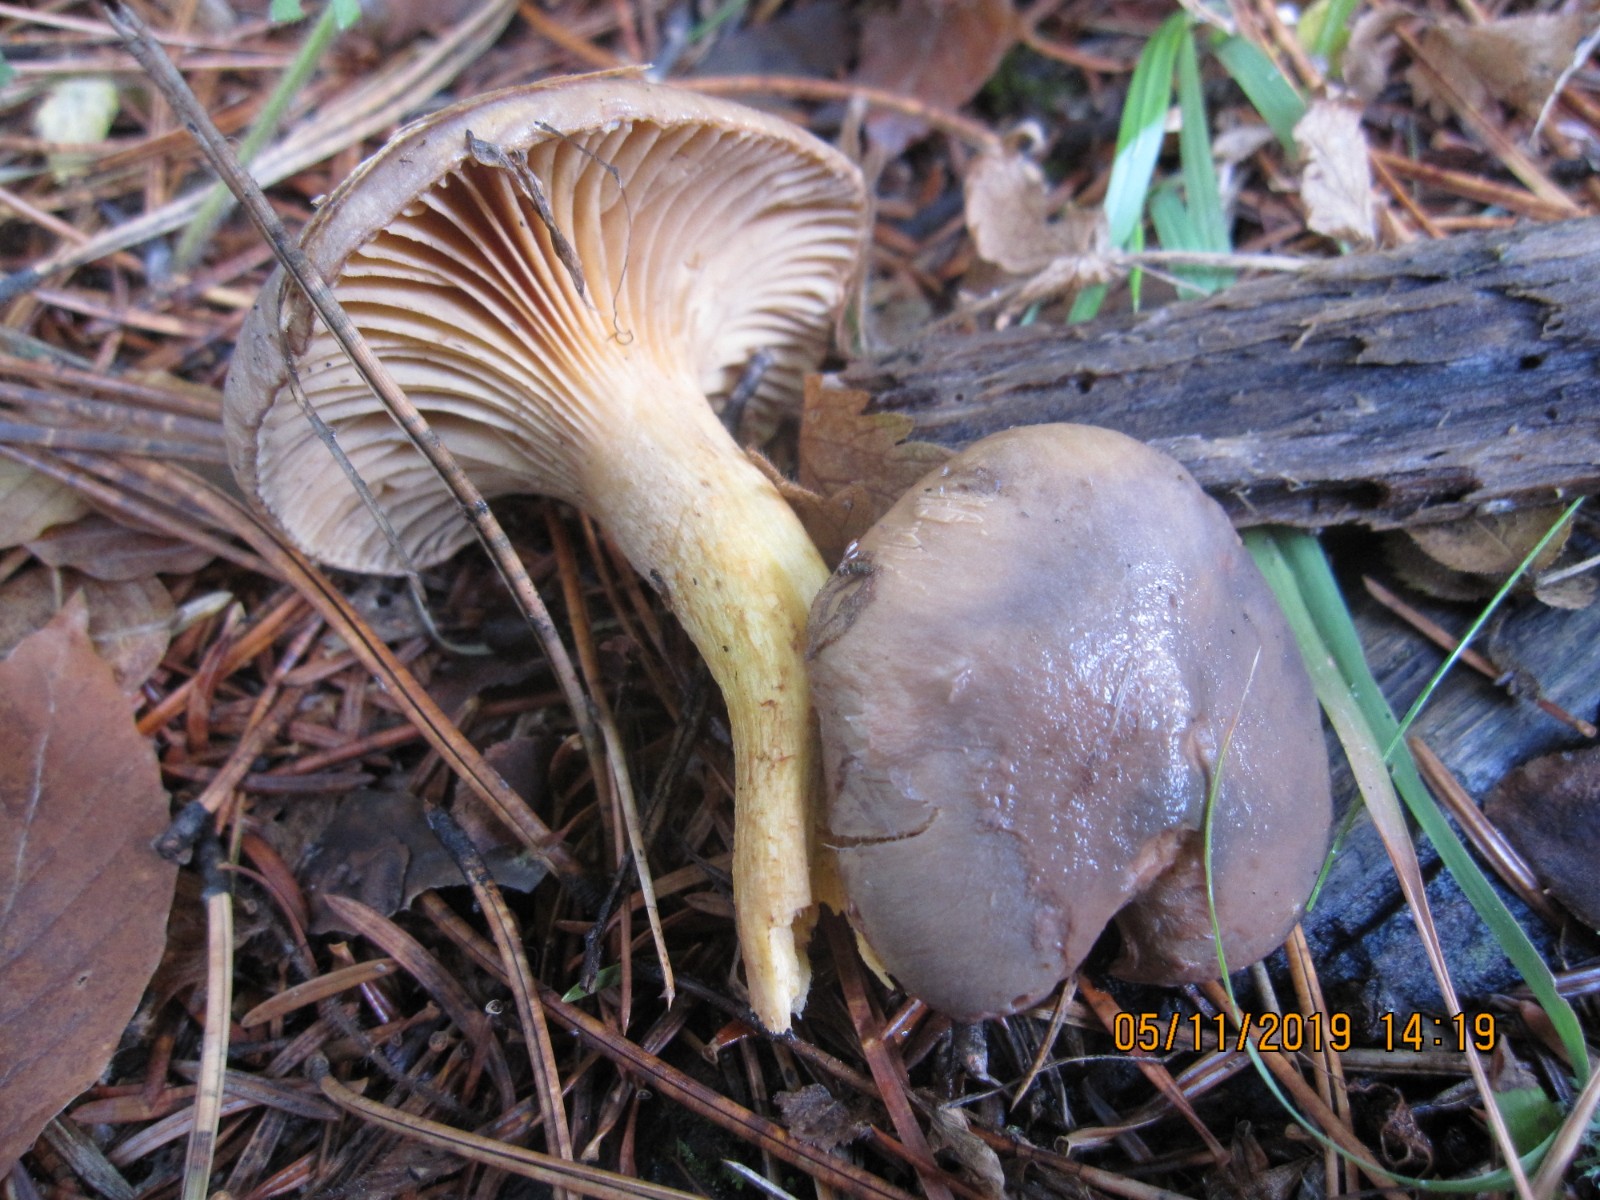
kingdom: Fungi
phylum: Basidiomycota
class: Agaricomycetes
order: Boletales
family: Gomphidiaceae
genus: Chroogomphus
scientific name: Chroogomphus
